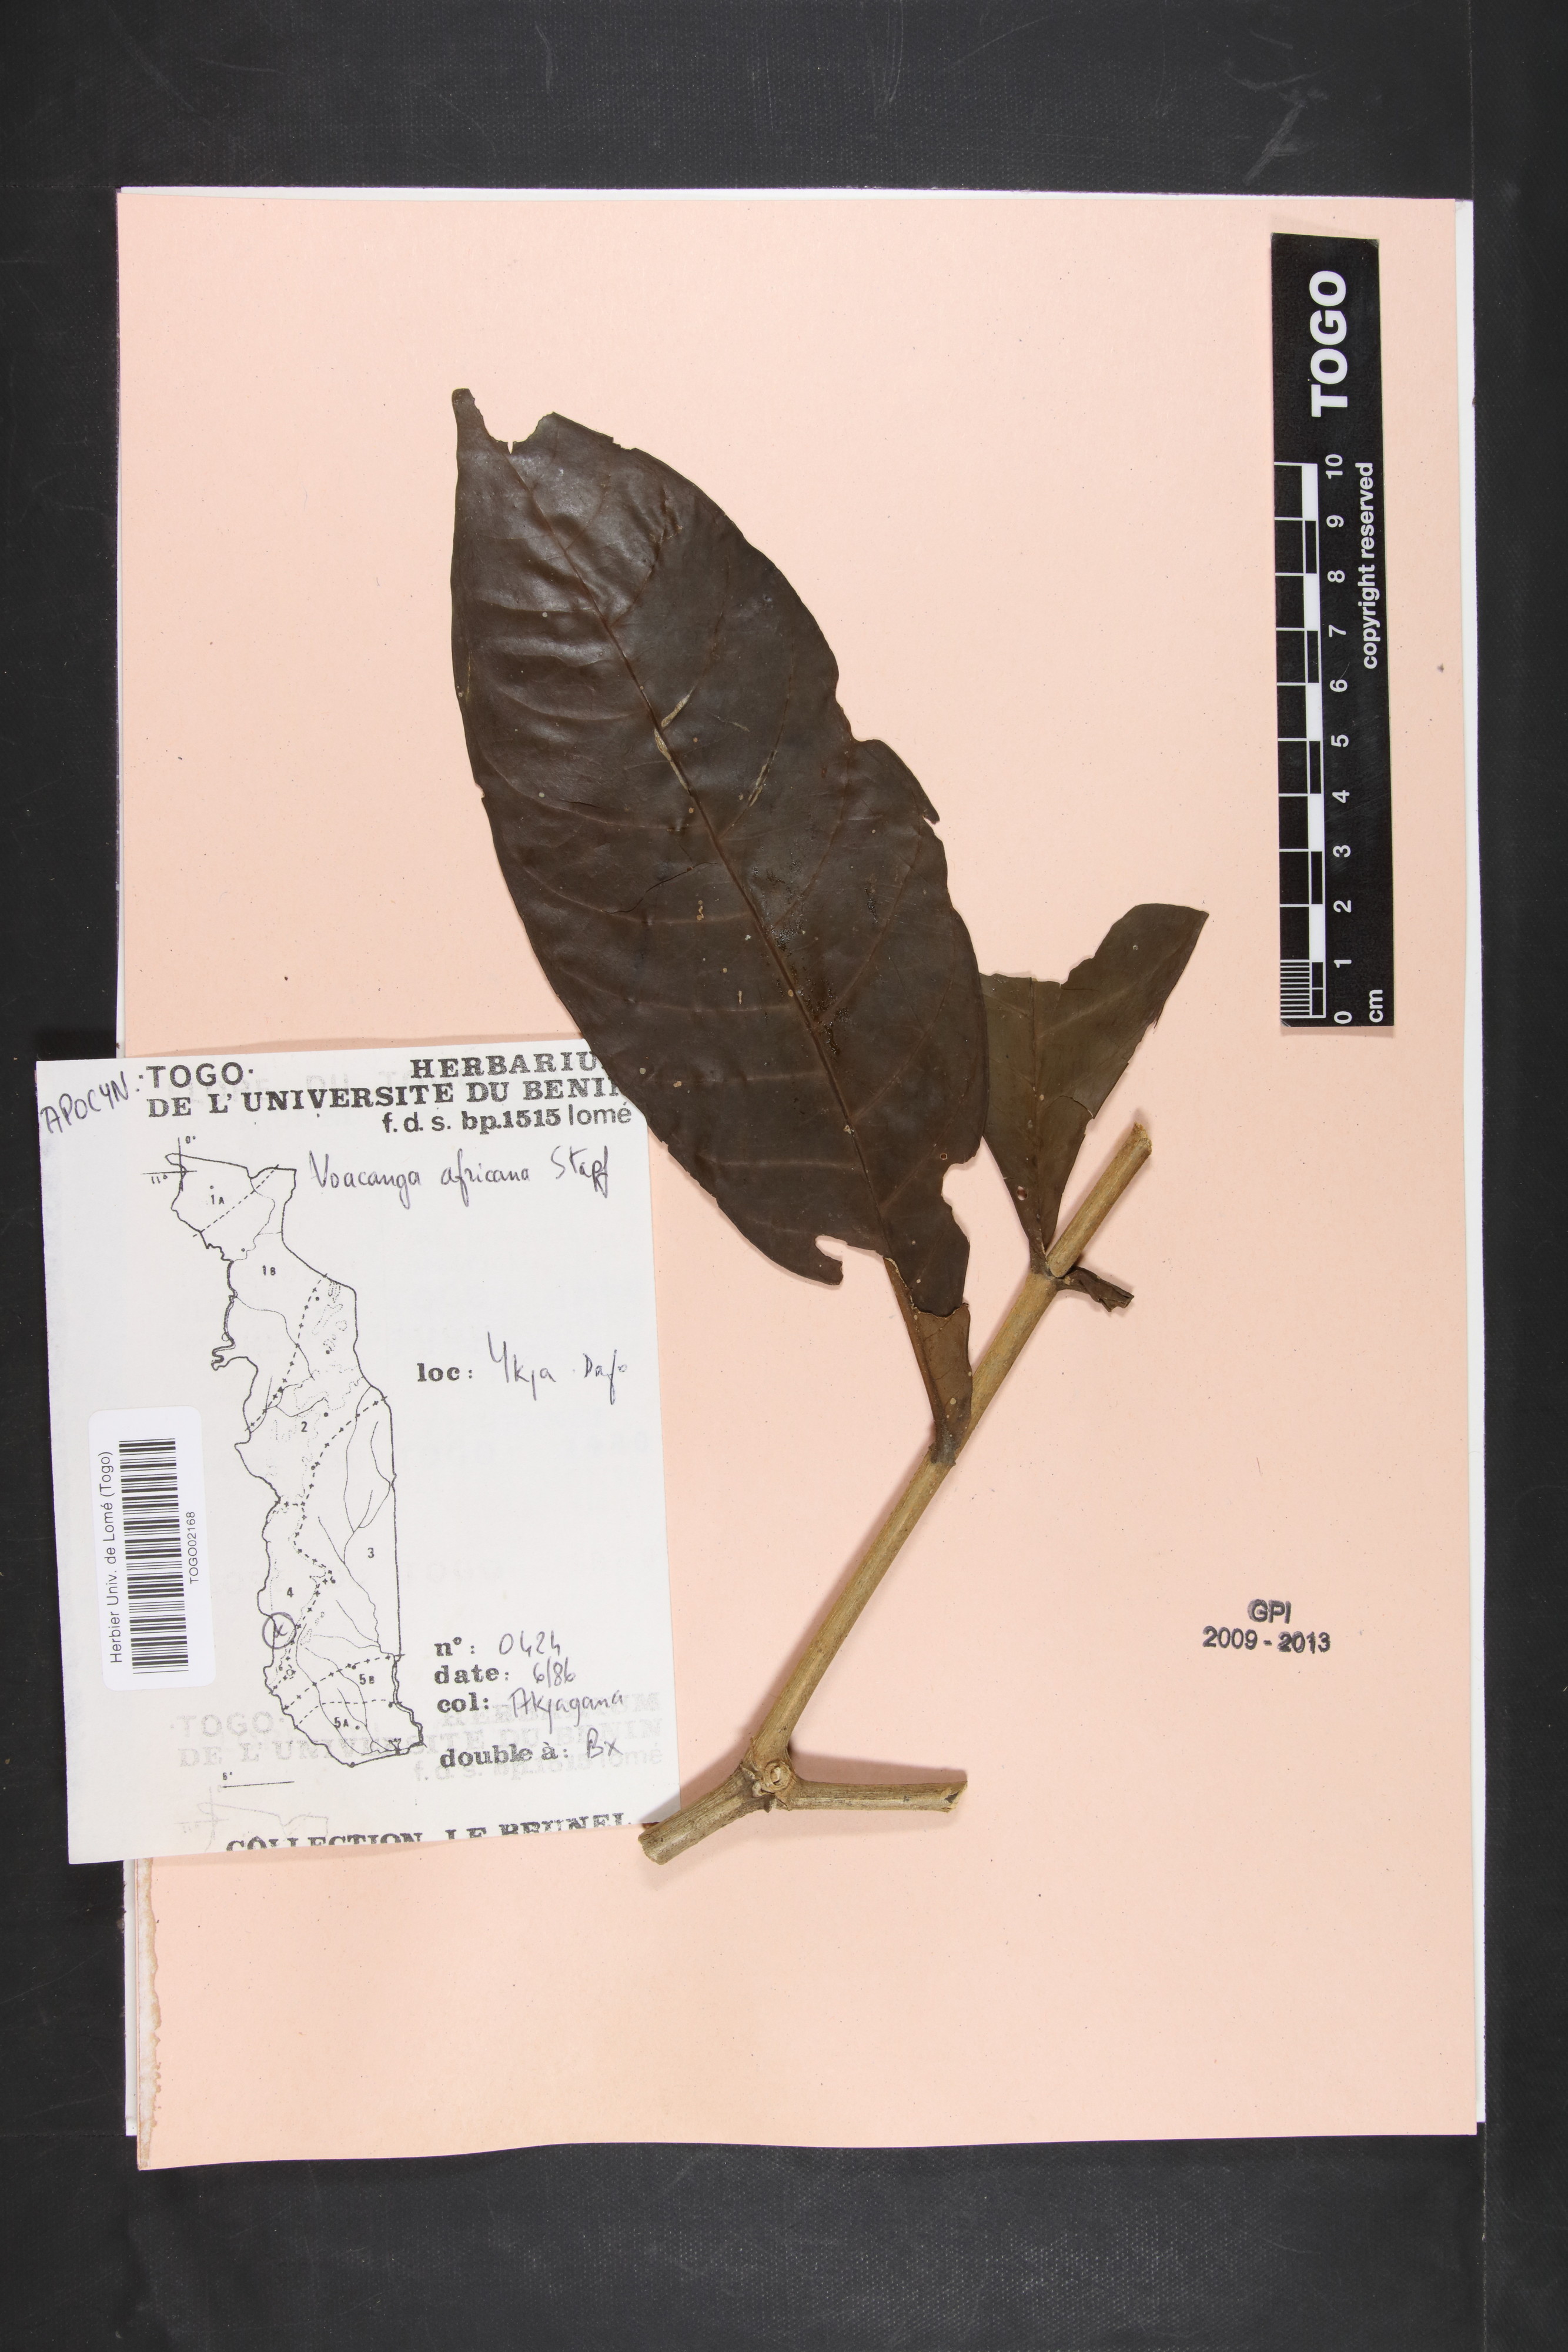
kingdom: Plantae
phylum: Tracheophyta
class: Magnoliopsida
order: Gentianales
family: Apocynaceae
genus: Voacanga
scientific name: Voacanga africana
